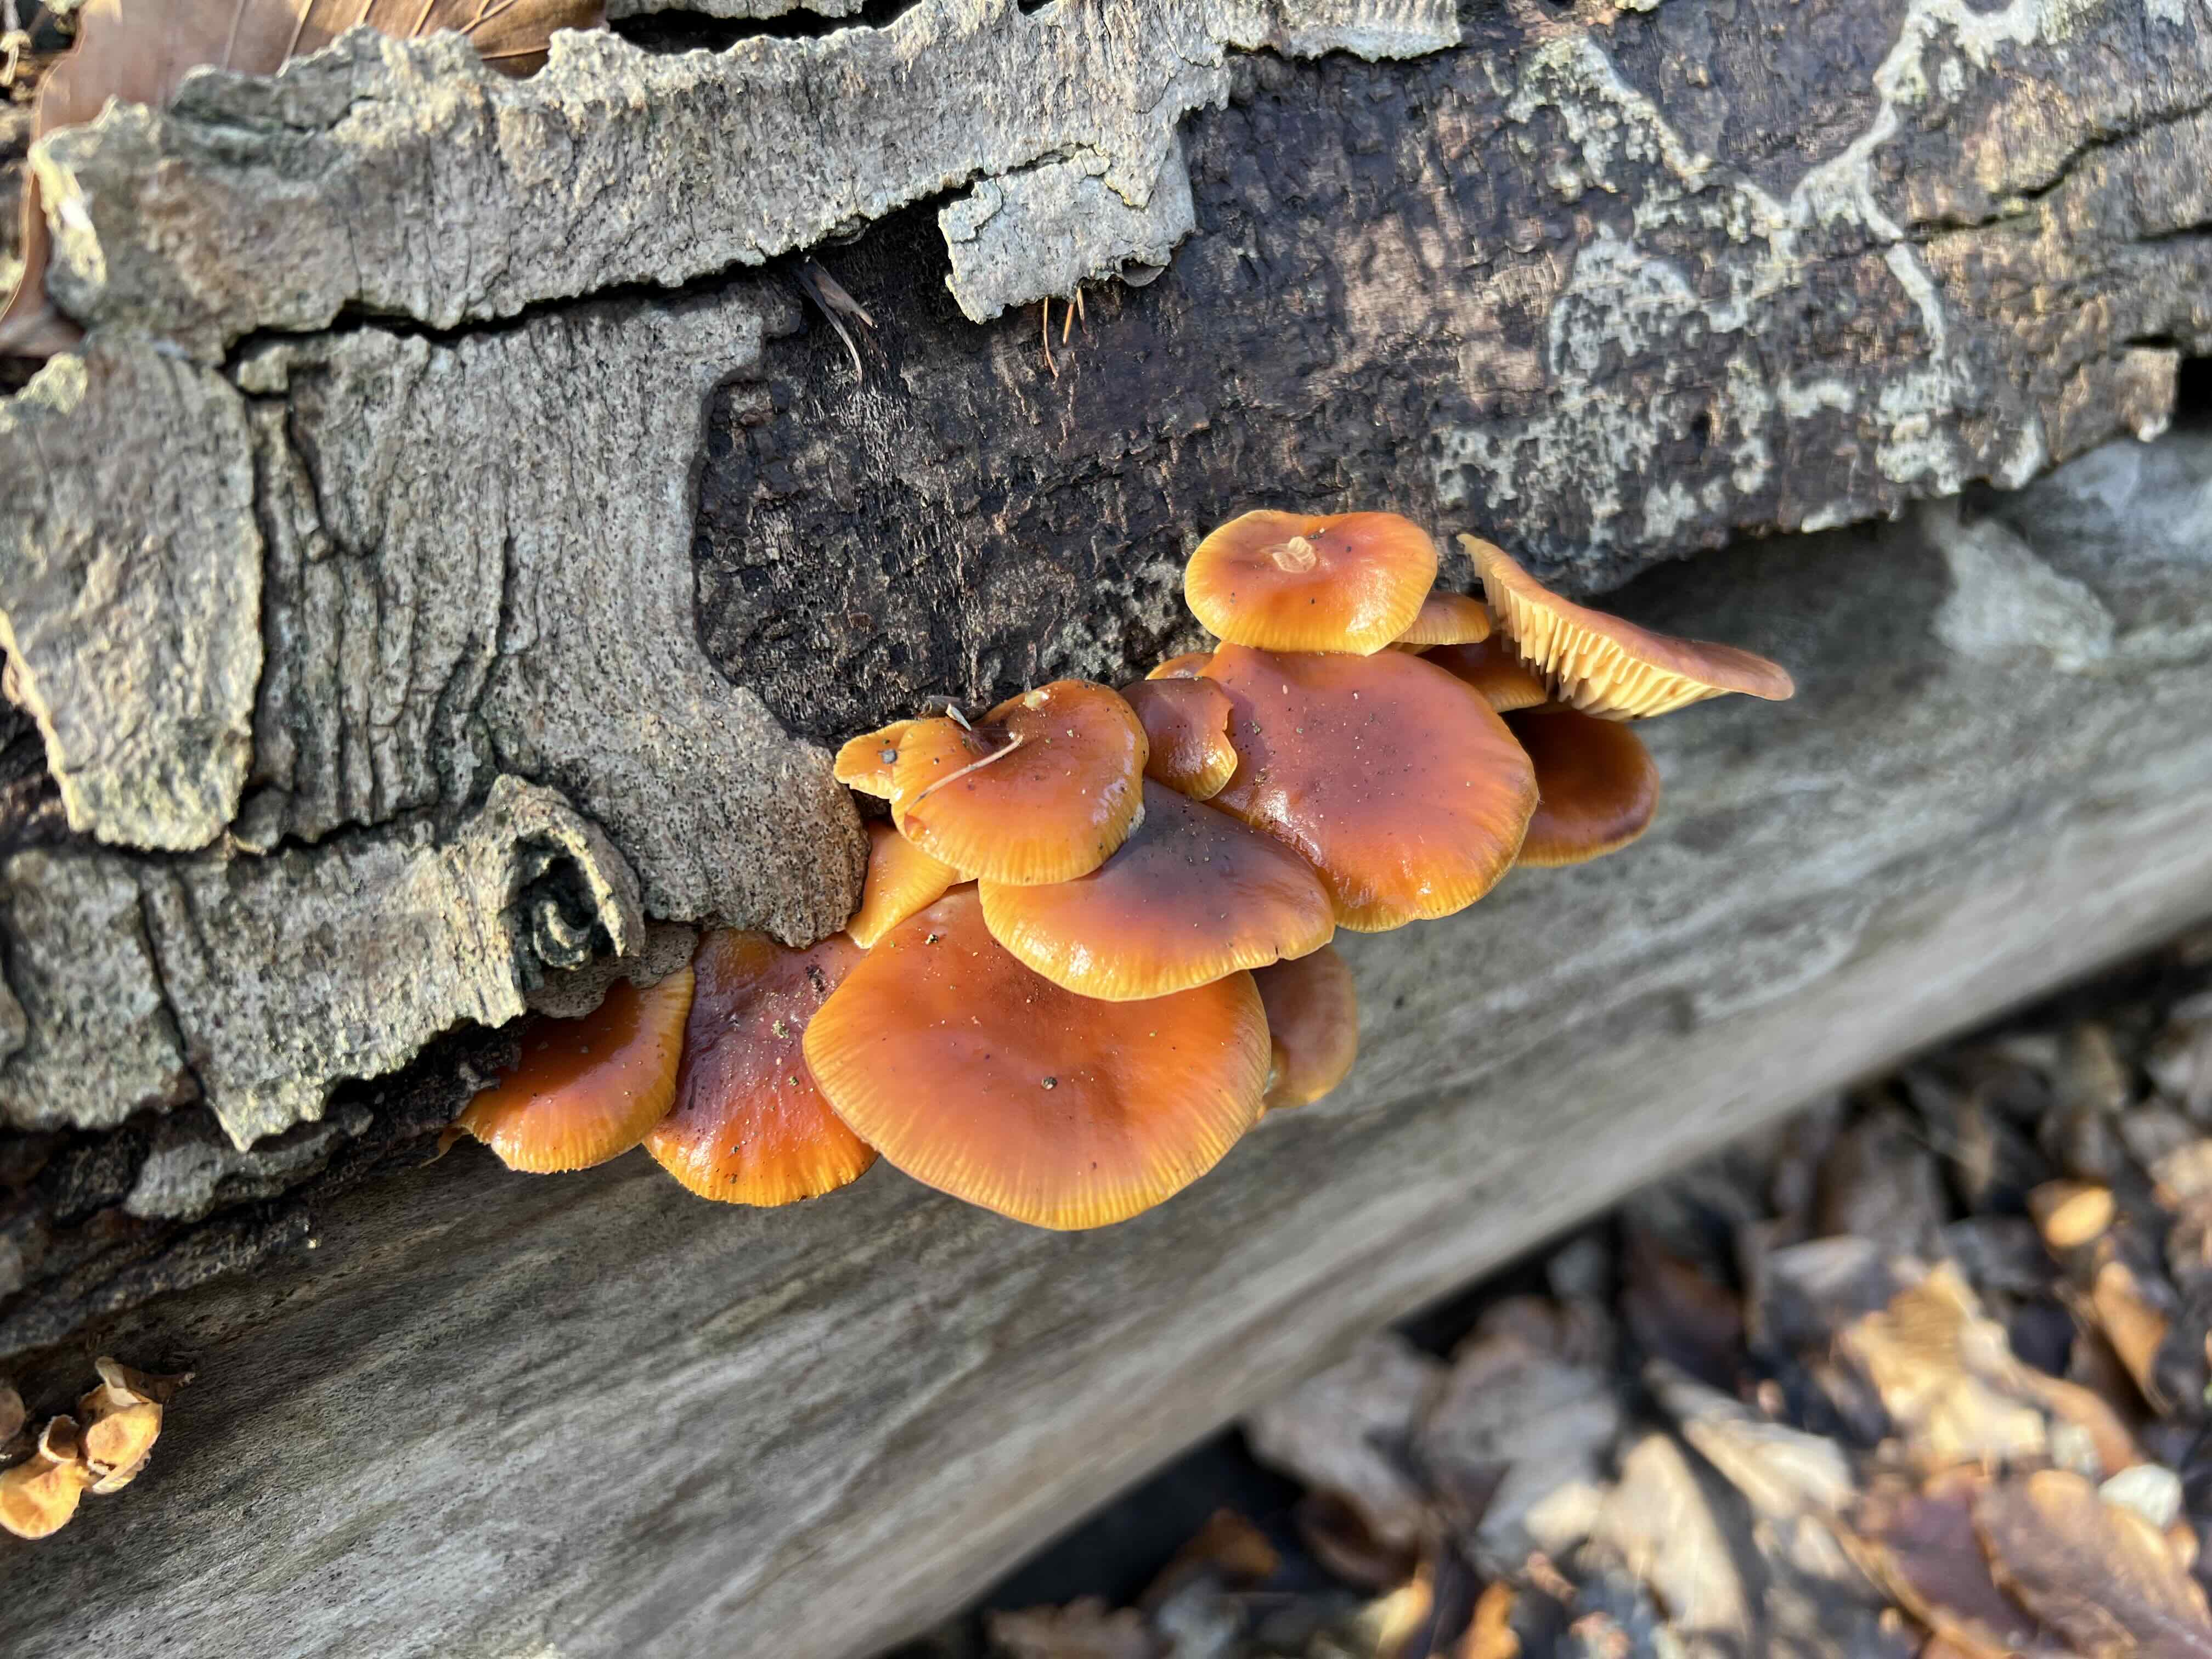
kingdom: Fungi
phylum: Basidiomycota
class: Agaricomycetes
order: Agaricales
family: Physalacriaceae
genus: Flammulina
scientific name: Flammulina velutipes
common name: gul fløjlsfod
